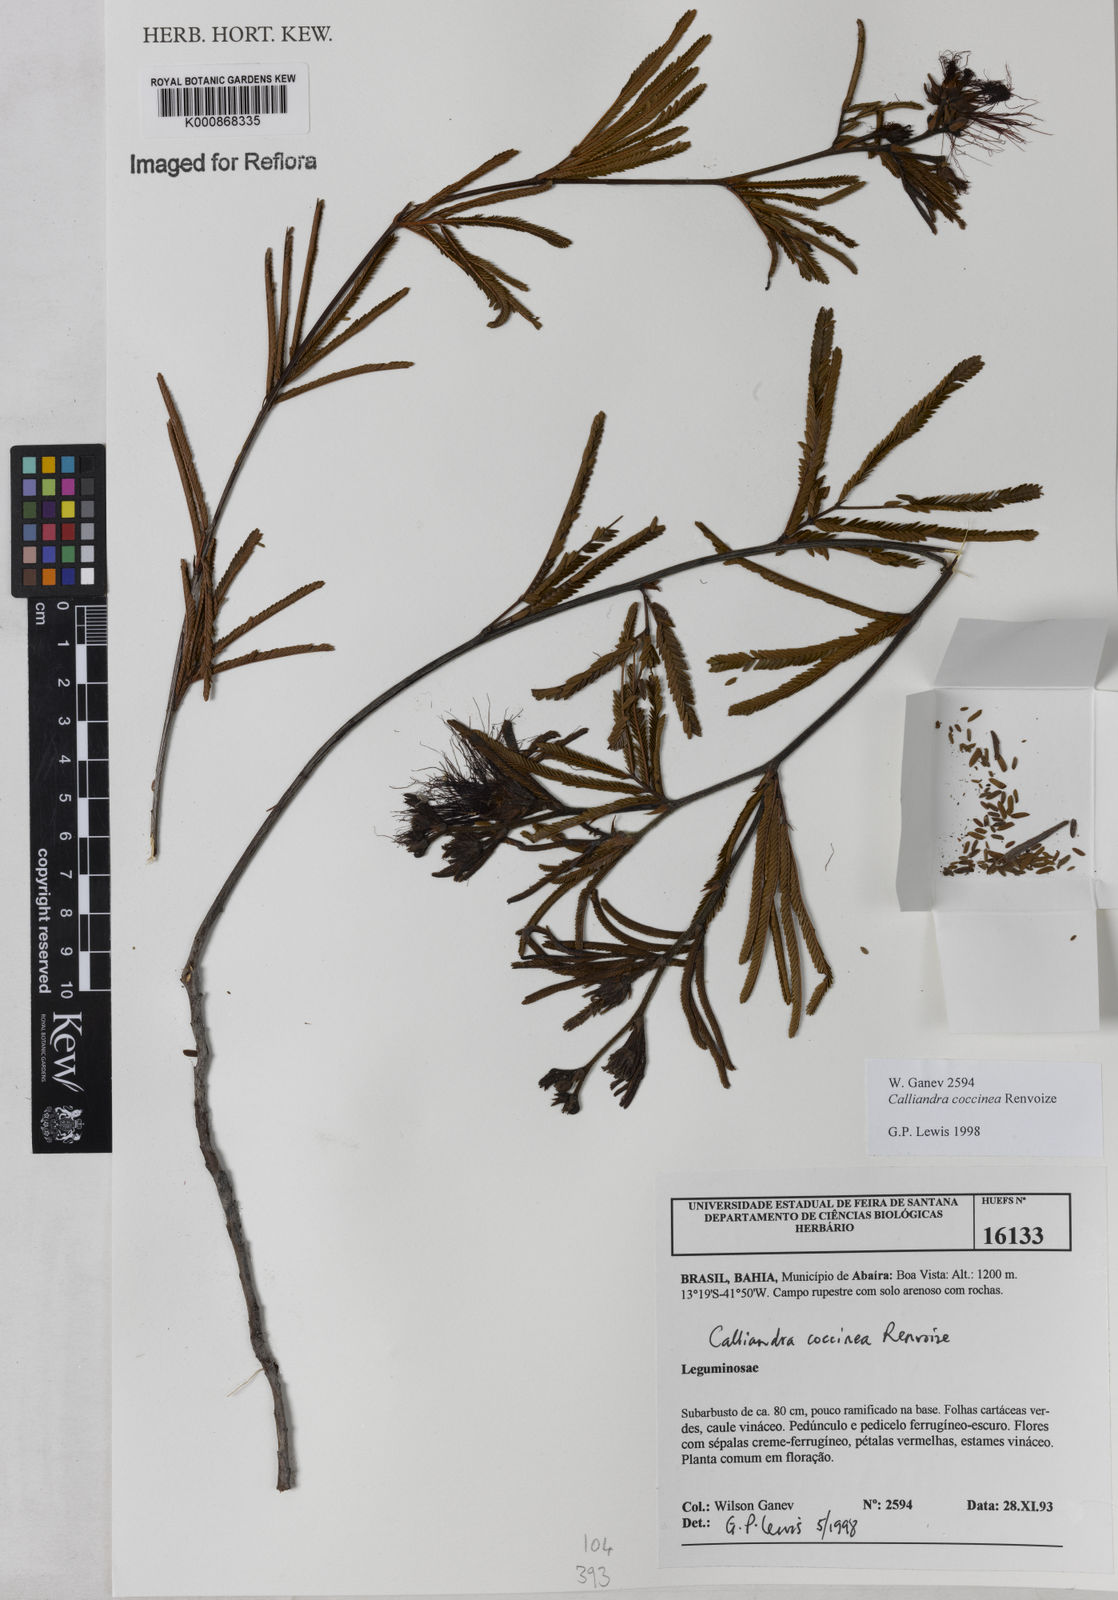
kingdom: Plantae
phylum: Tracheophyta
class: Magnoliopsida
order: Fabales
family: Fabaceae
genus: Calliandra
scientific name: Calliandra coccinea
